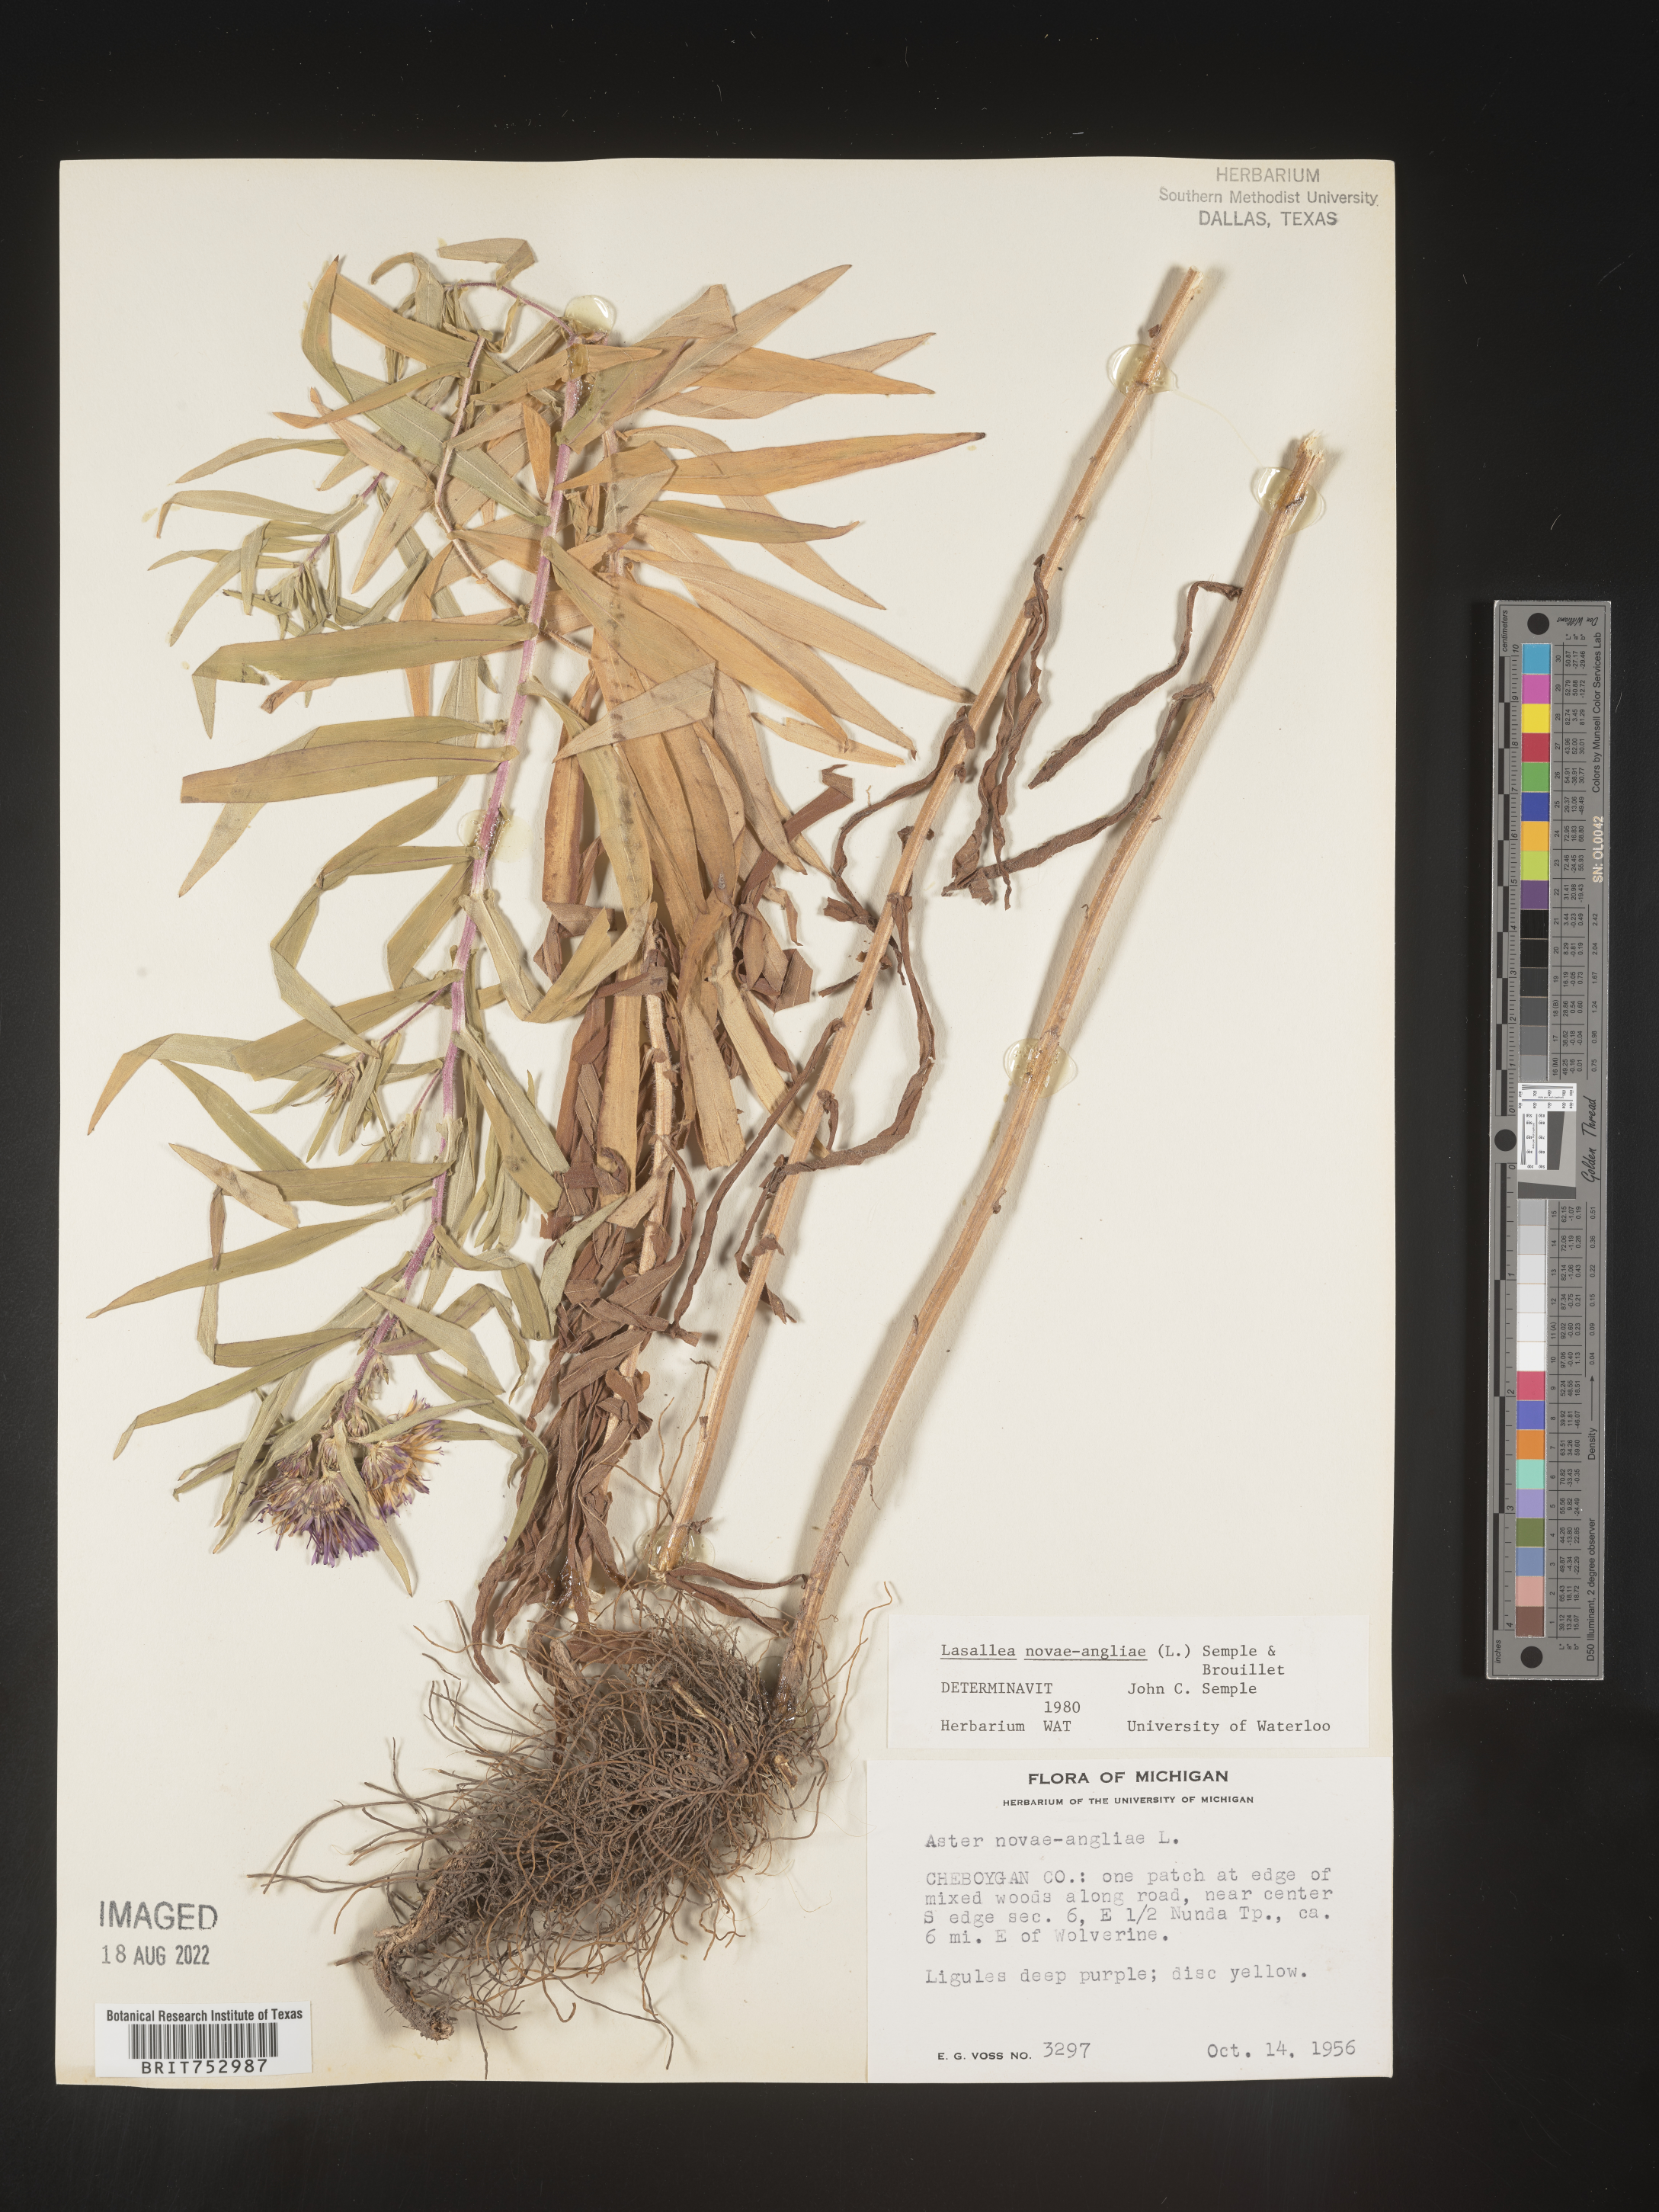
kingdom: Plantae
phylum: Tracheophyta
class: Magnoliopsida
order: Asterales
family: Asteraceae
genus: Symphyotrichum
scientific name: Symphyotrichum novae-angliae
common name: Michaelmas daisy
